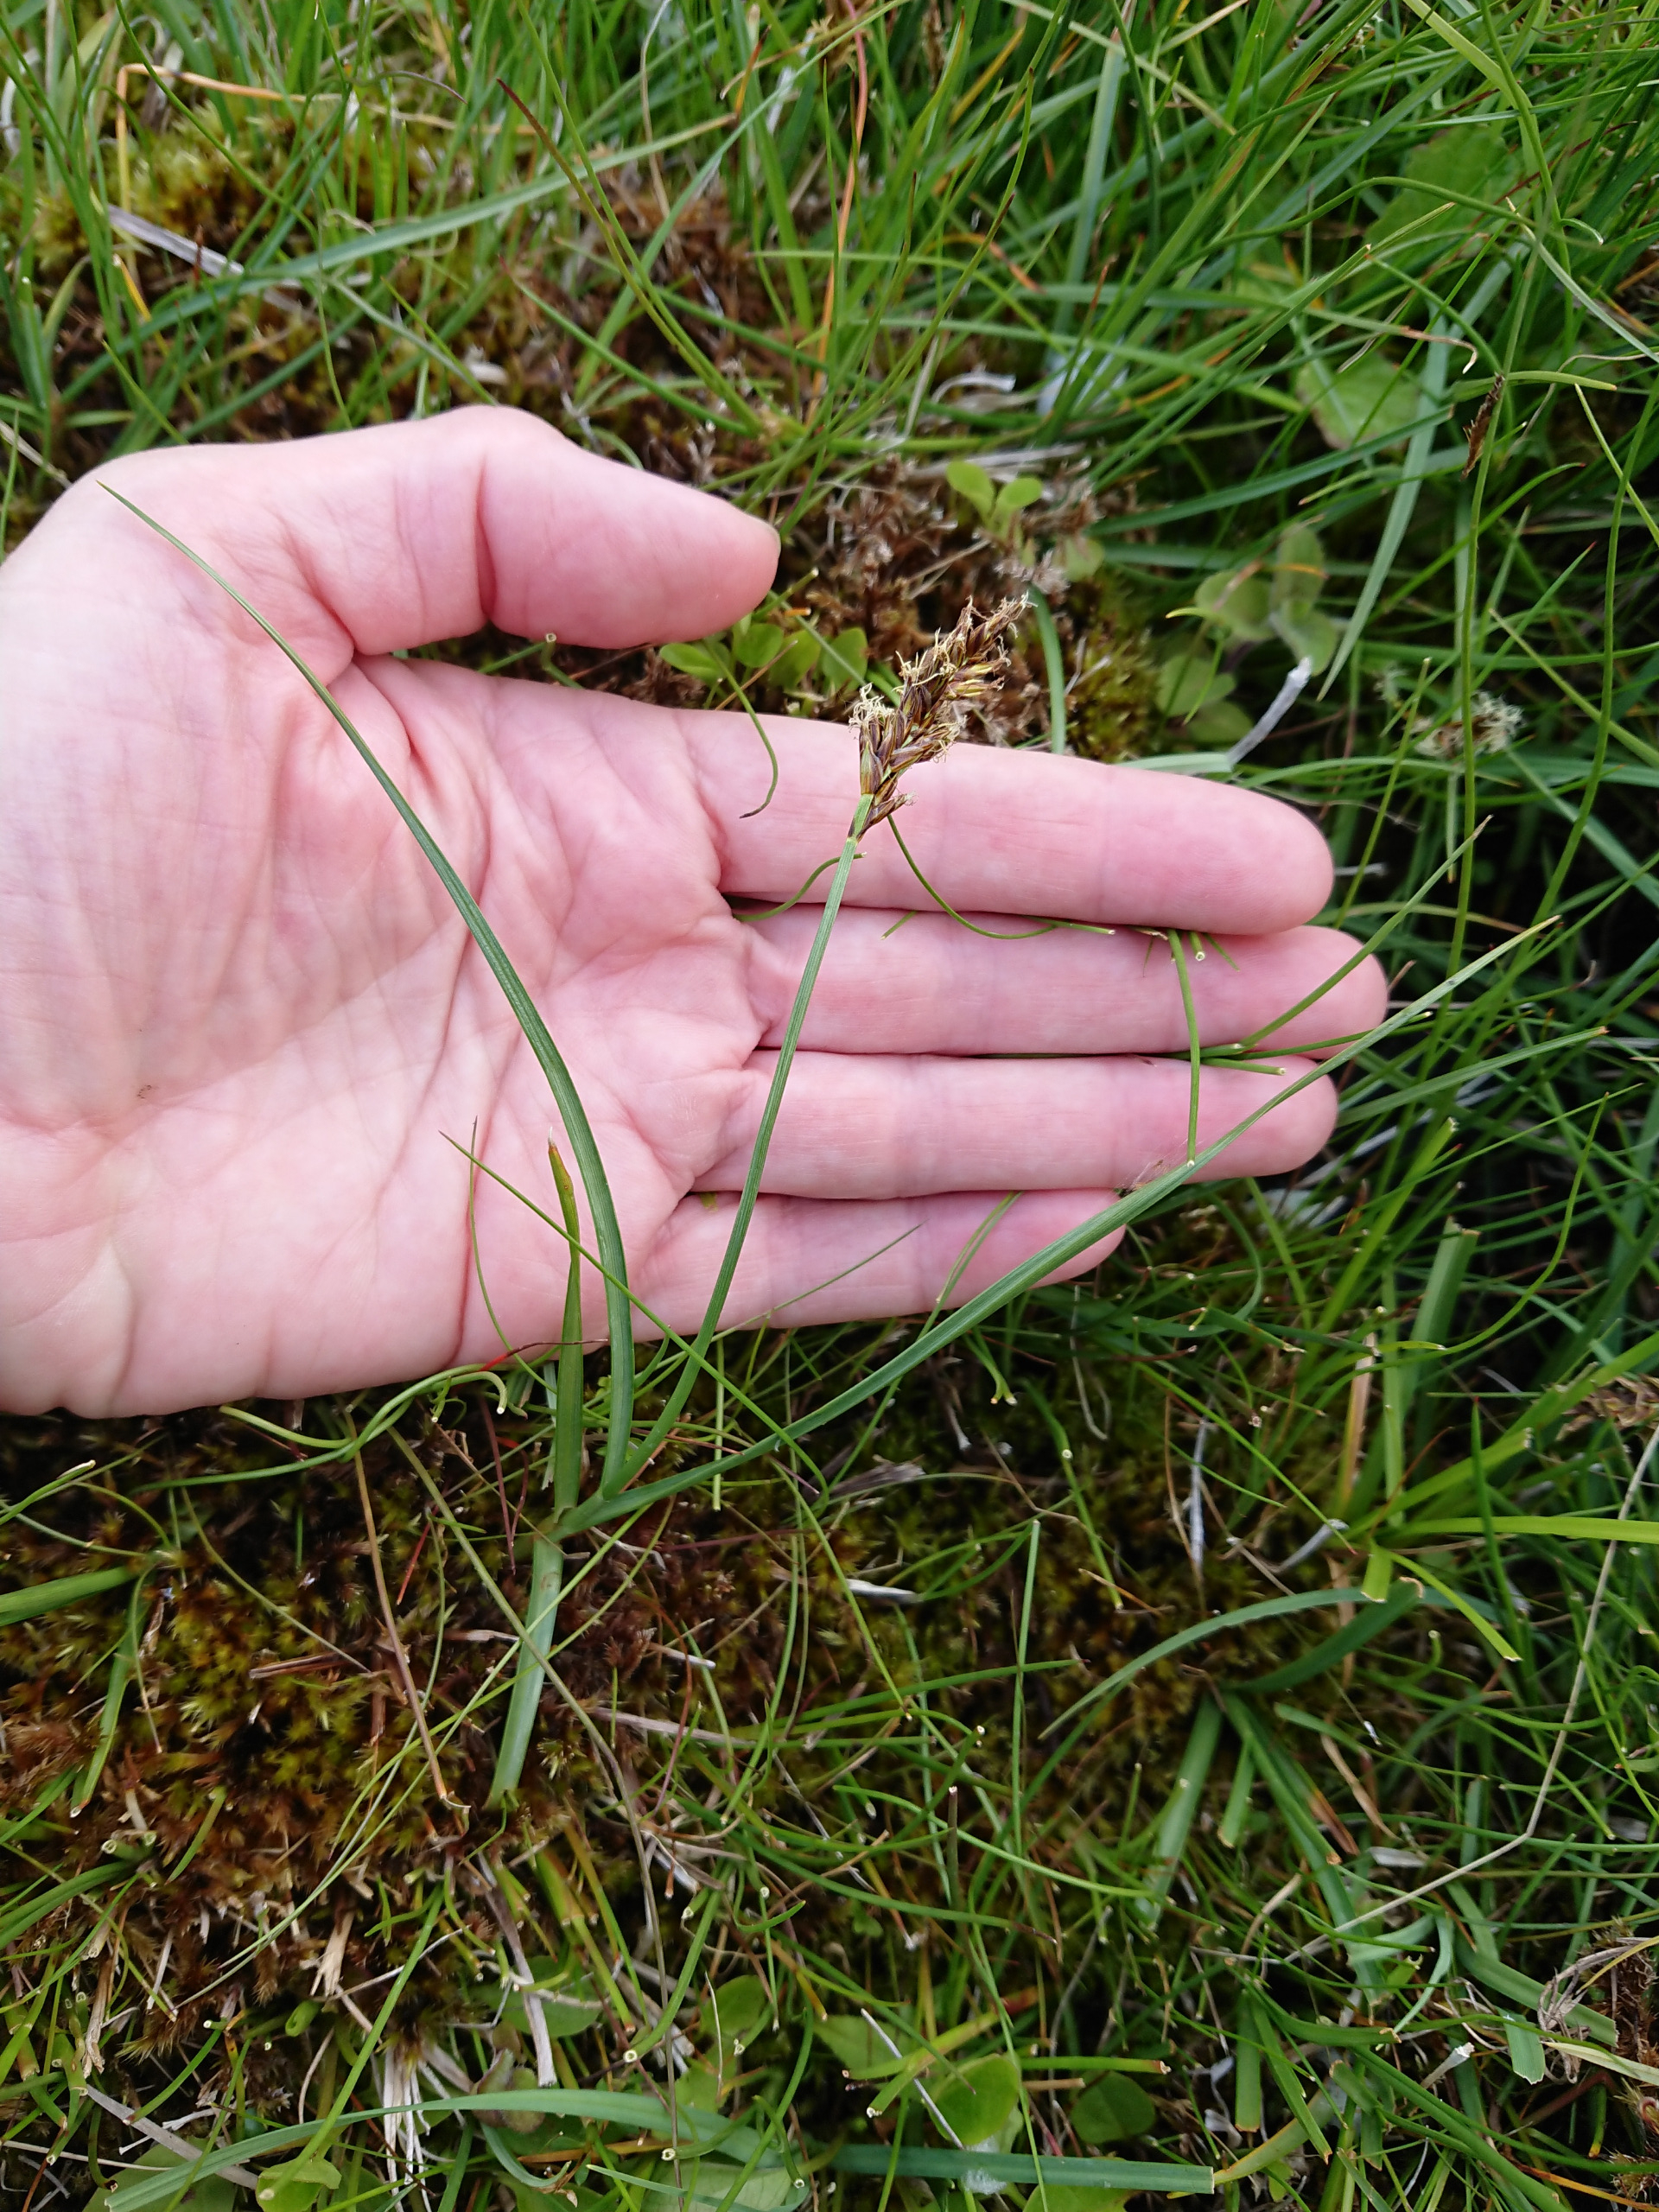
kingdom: Plantae
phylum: Tracheophyta
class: Liliopsida
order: Poales
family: Cyperaceae
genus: Blysmus
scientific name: Blysmus compressus
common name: Fladtrykt kogleaks
